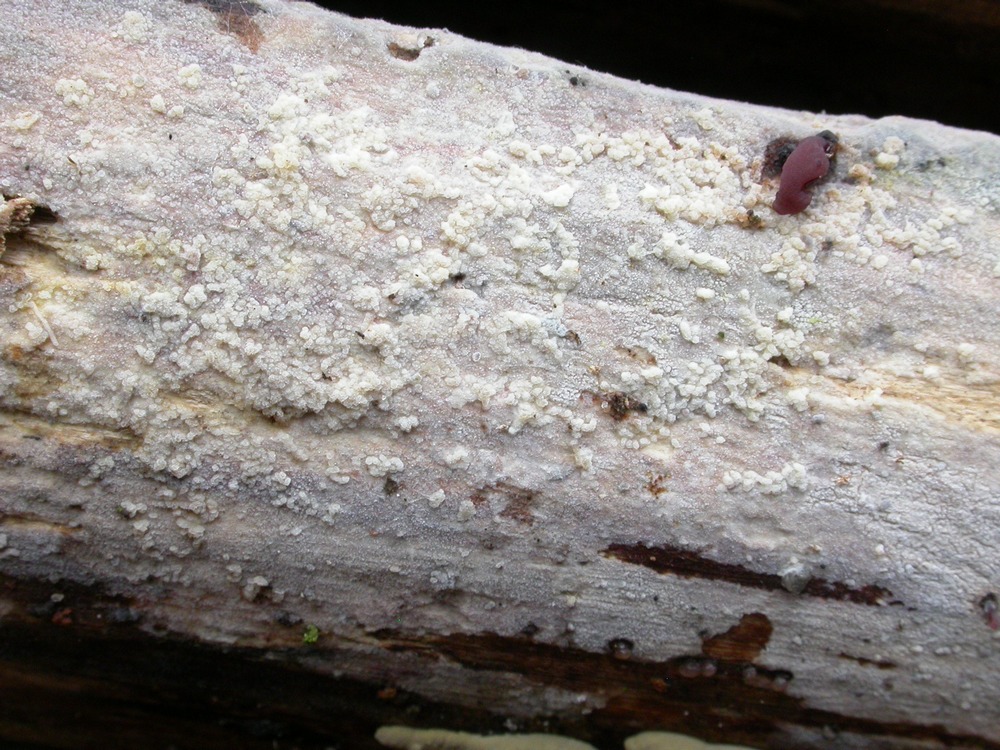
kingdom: Fungi
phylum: Basidiomycota
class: Agaricomycetes
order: Hymenochaetales
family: Rickenellaceae
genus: Peniophorella
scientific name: Peniophorella pubera
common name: dunet kalkskind
